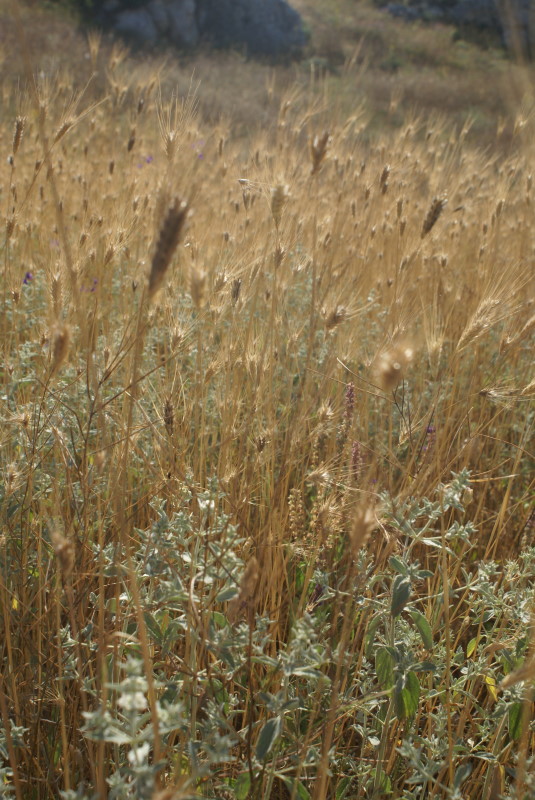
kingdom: Plantae
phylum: Tracheophyta
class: Liliopsida
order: Poales
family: Poaceae
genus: Hordeum
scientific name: Hordeum marinum
